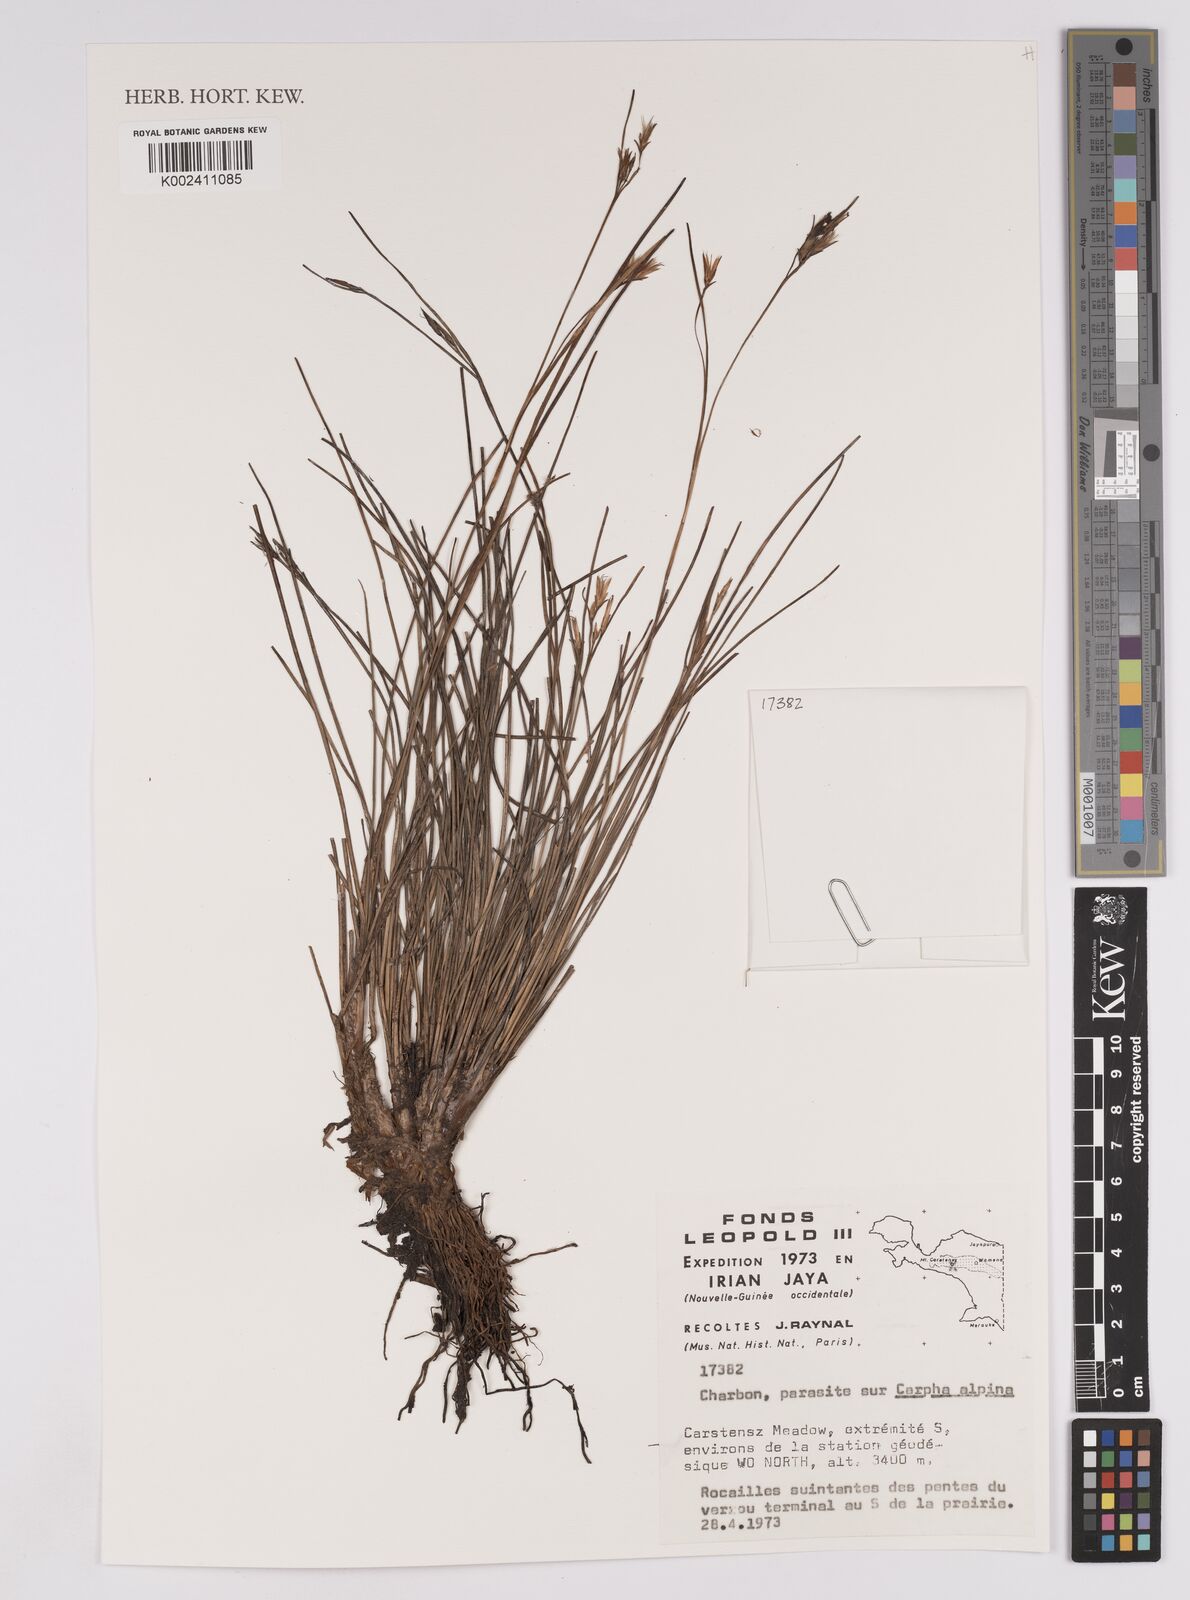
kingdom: Plantae
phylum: Tracheophyta
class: Liliopsida
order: Poales
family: Cyperaceae
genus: Carpha
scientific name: Carpha alpina
